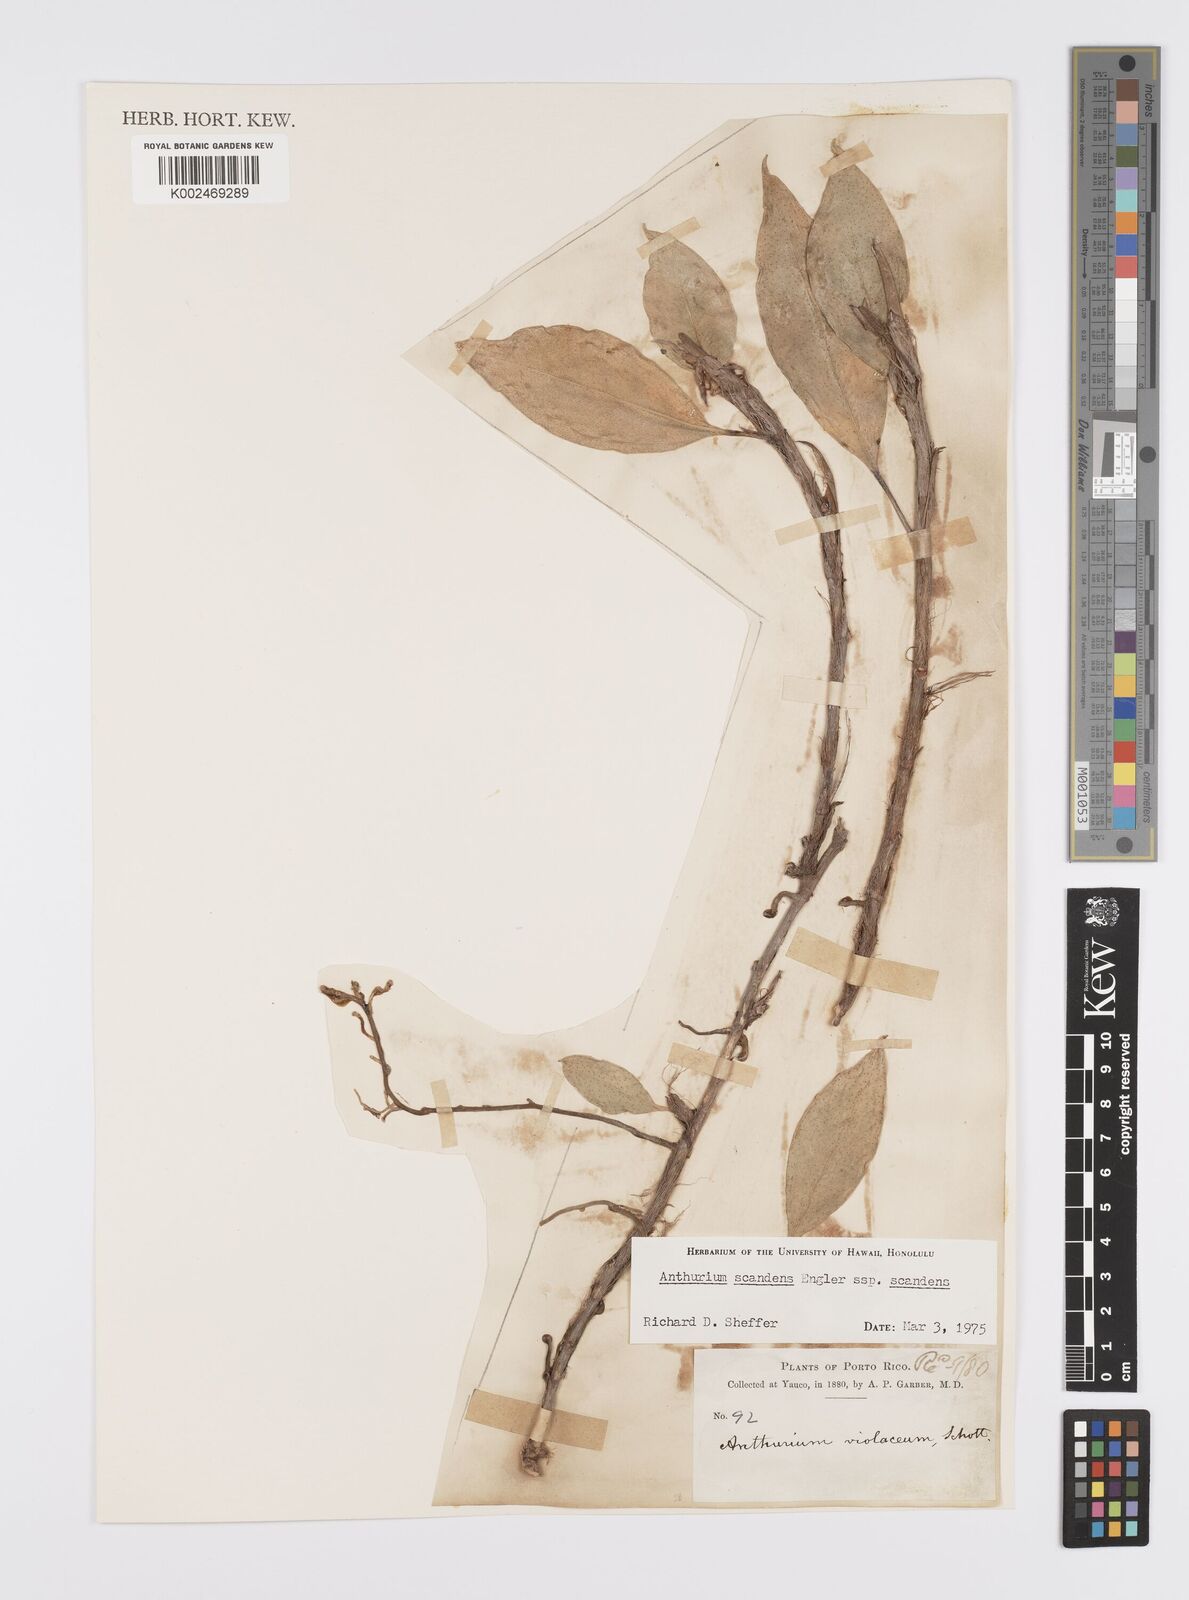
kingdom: Plantae
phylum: Tracheophyta
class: Liliopsida
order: Alismatales
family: Araceae
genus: Anthurium
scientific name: Anthurium scandens
